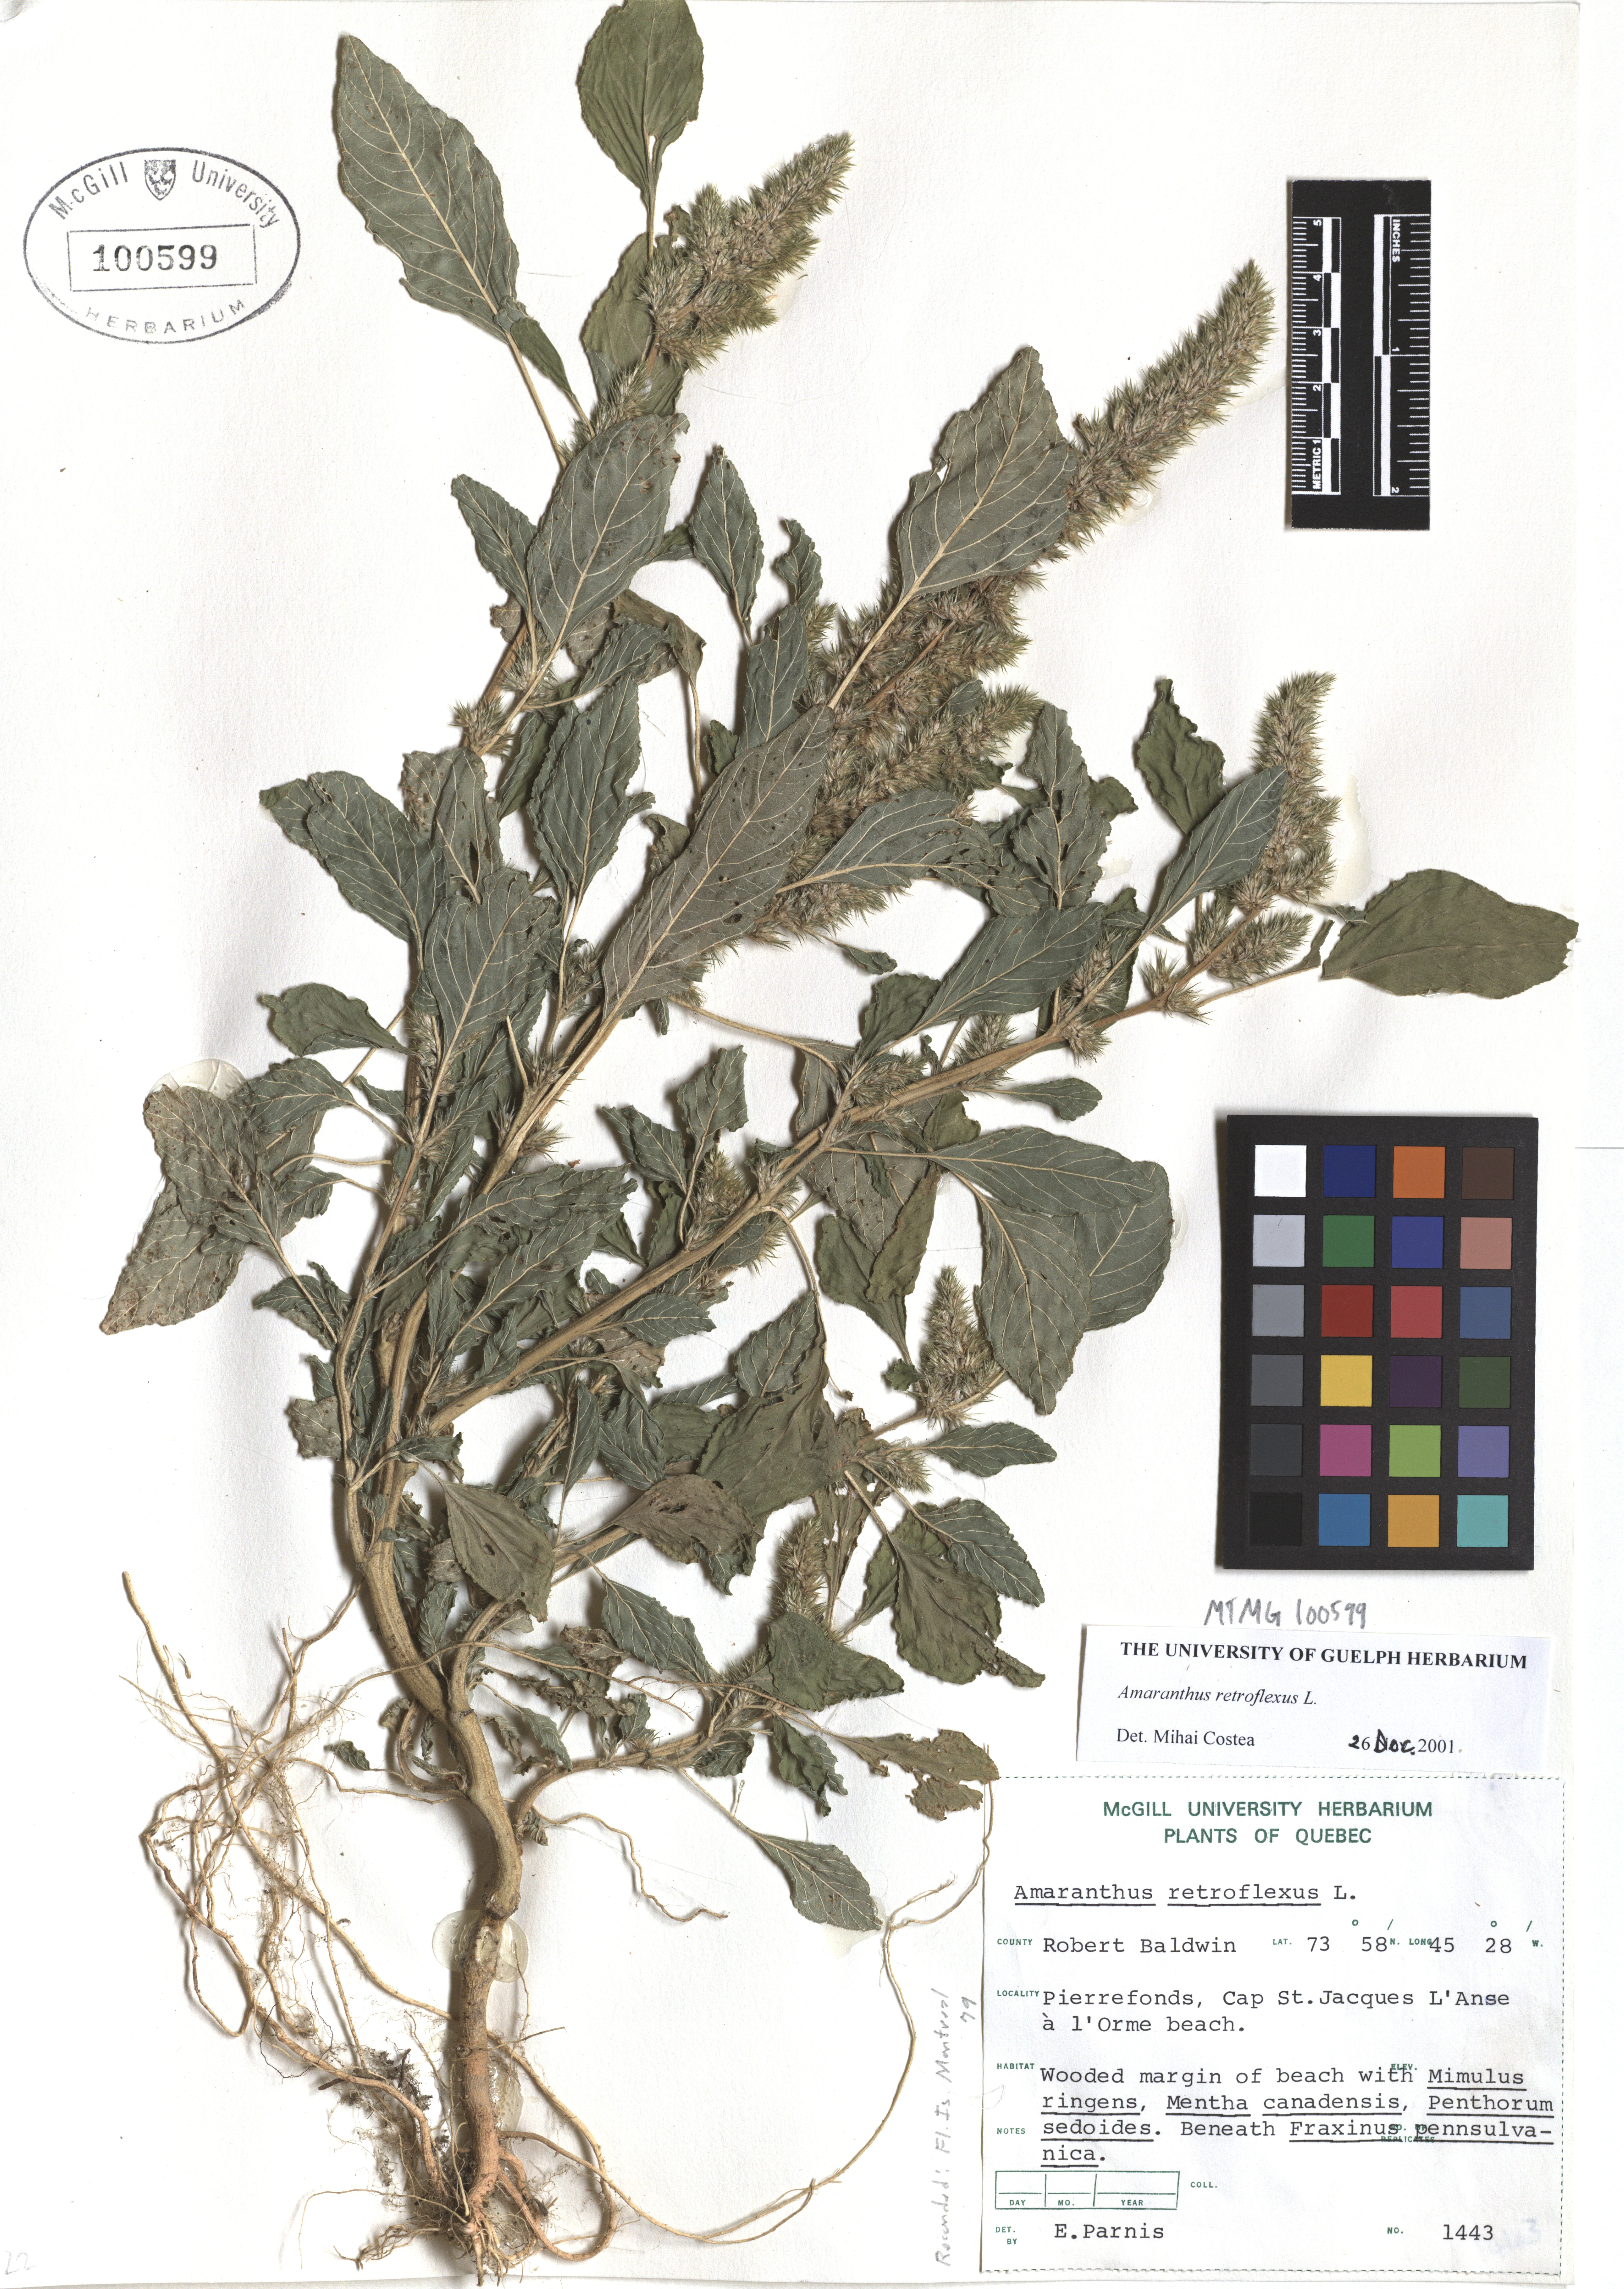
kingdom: Plantae
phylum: Tracheophyta
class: Magnoliopsida
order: Caryophyllales
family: Amaranthaceae
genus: Amaranthus
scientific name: Amaranthus retroflexus
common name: Redroot amaranth
